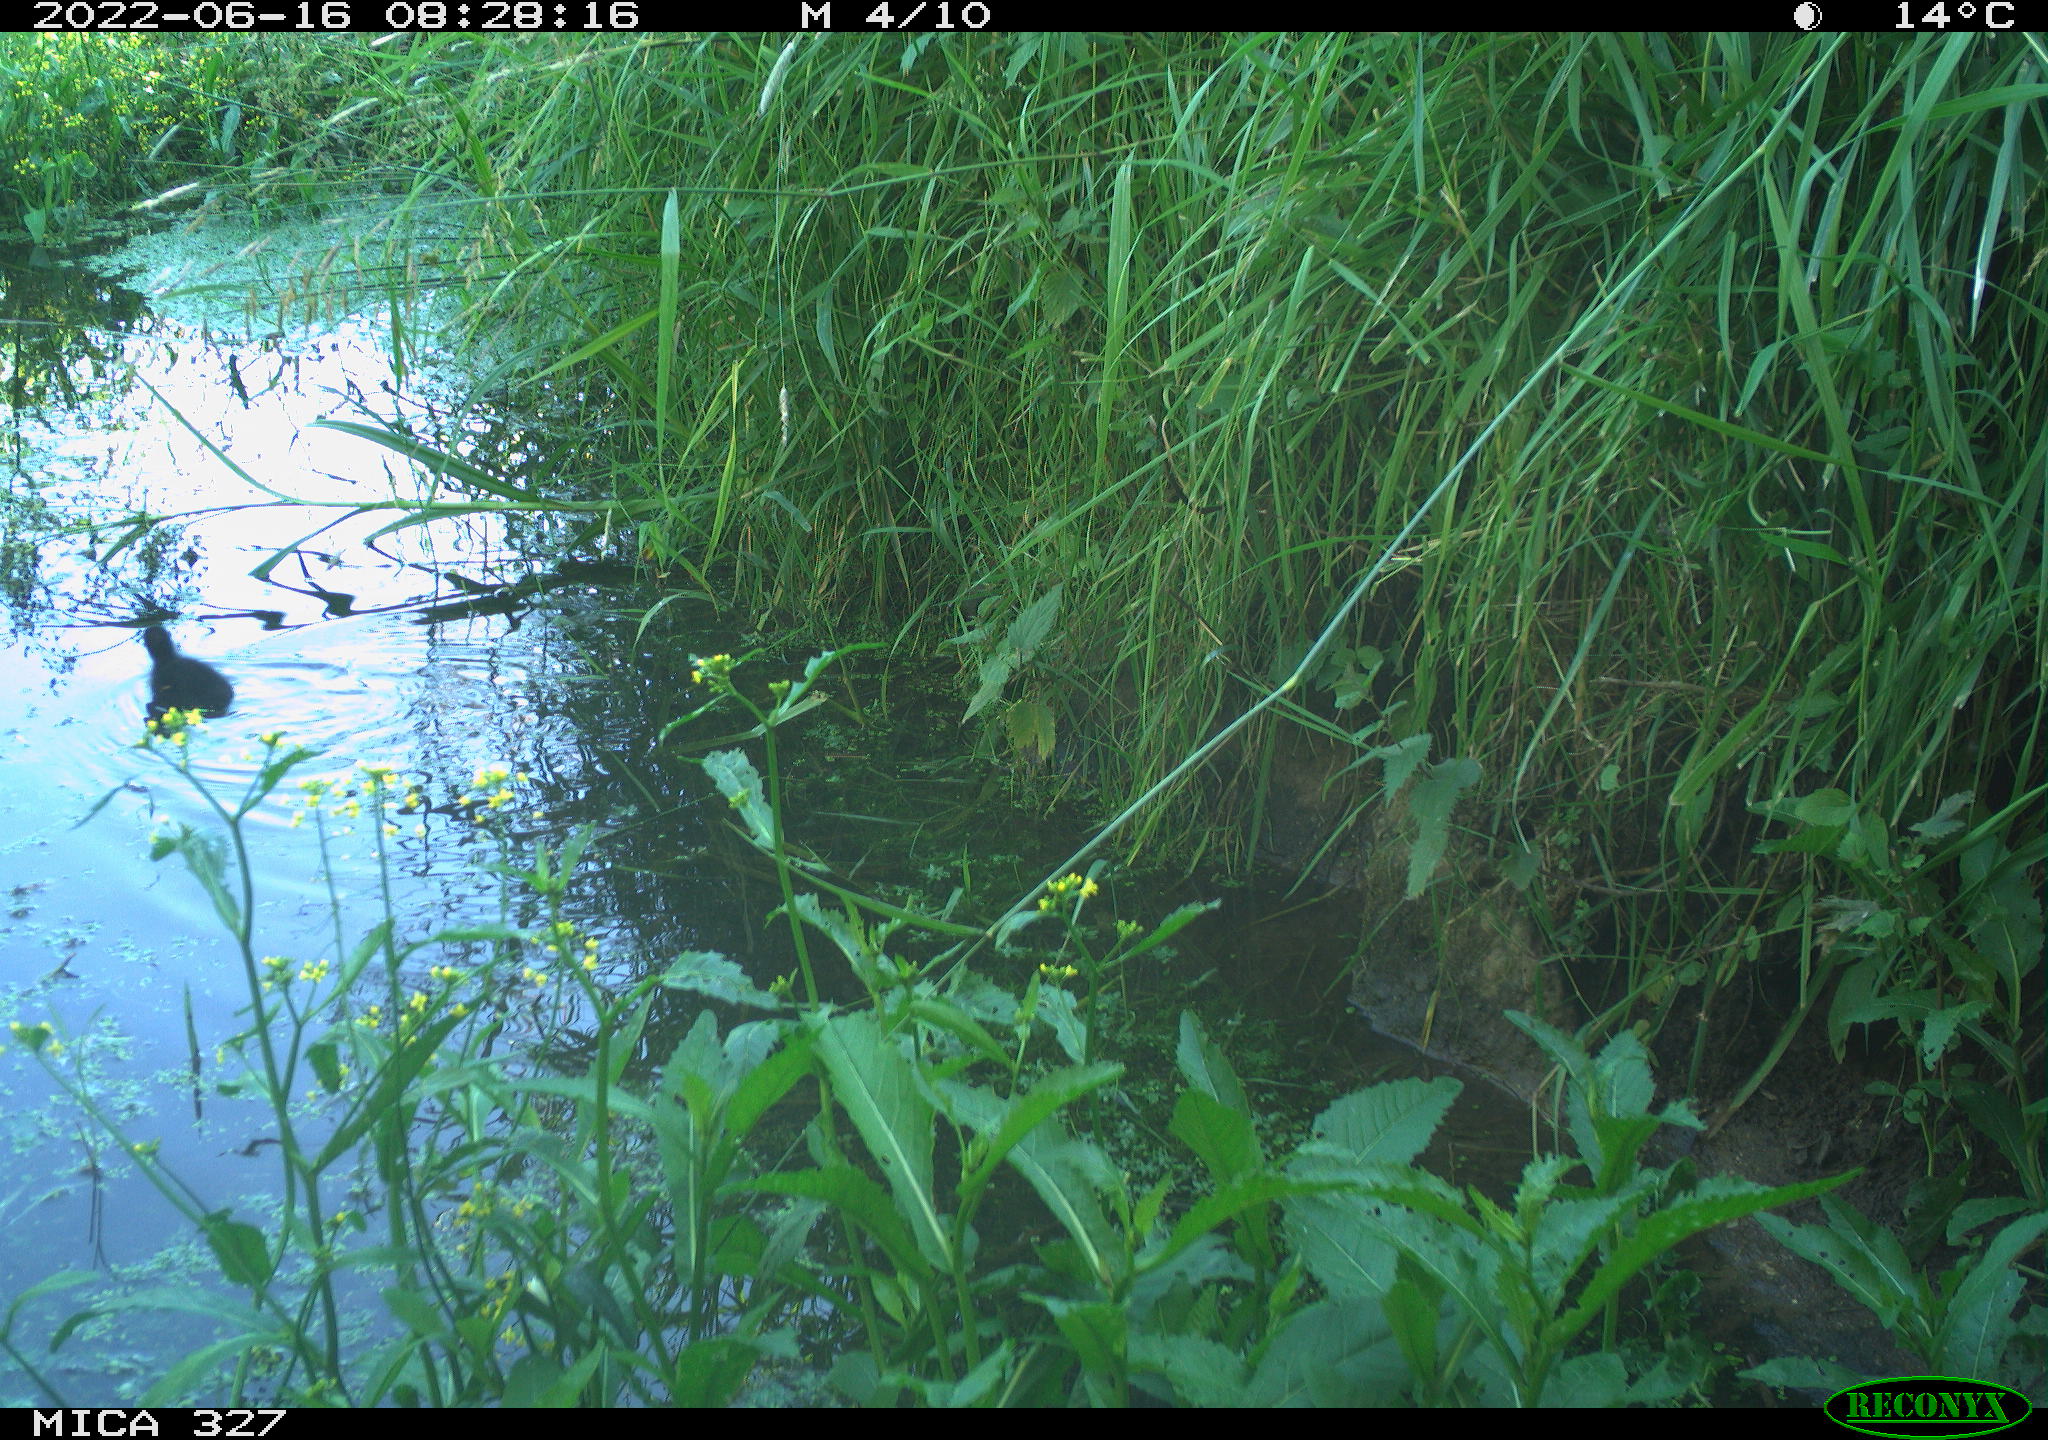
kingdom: Animalia
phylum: Chordata
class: Aves
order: Gruiformes
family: Rallidae
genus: Gallinula
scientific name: Gallinula chloropus
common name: Common moorhen
